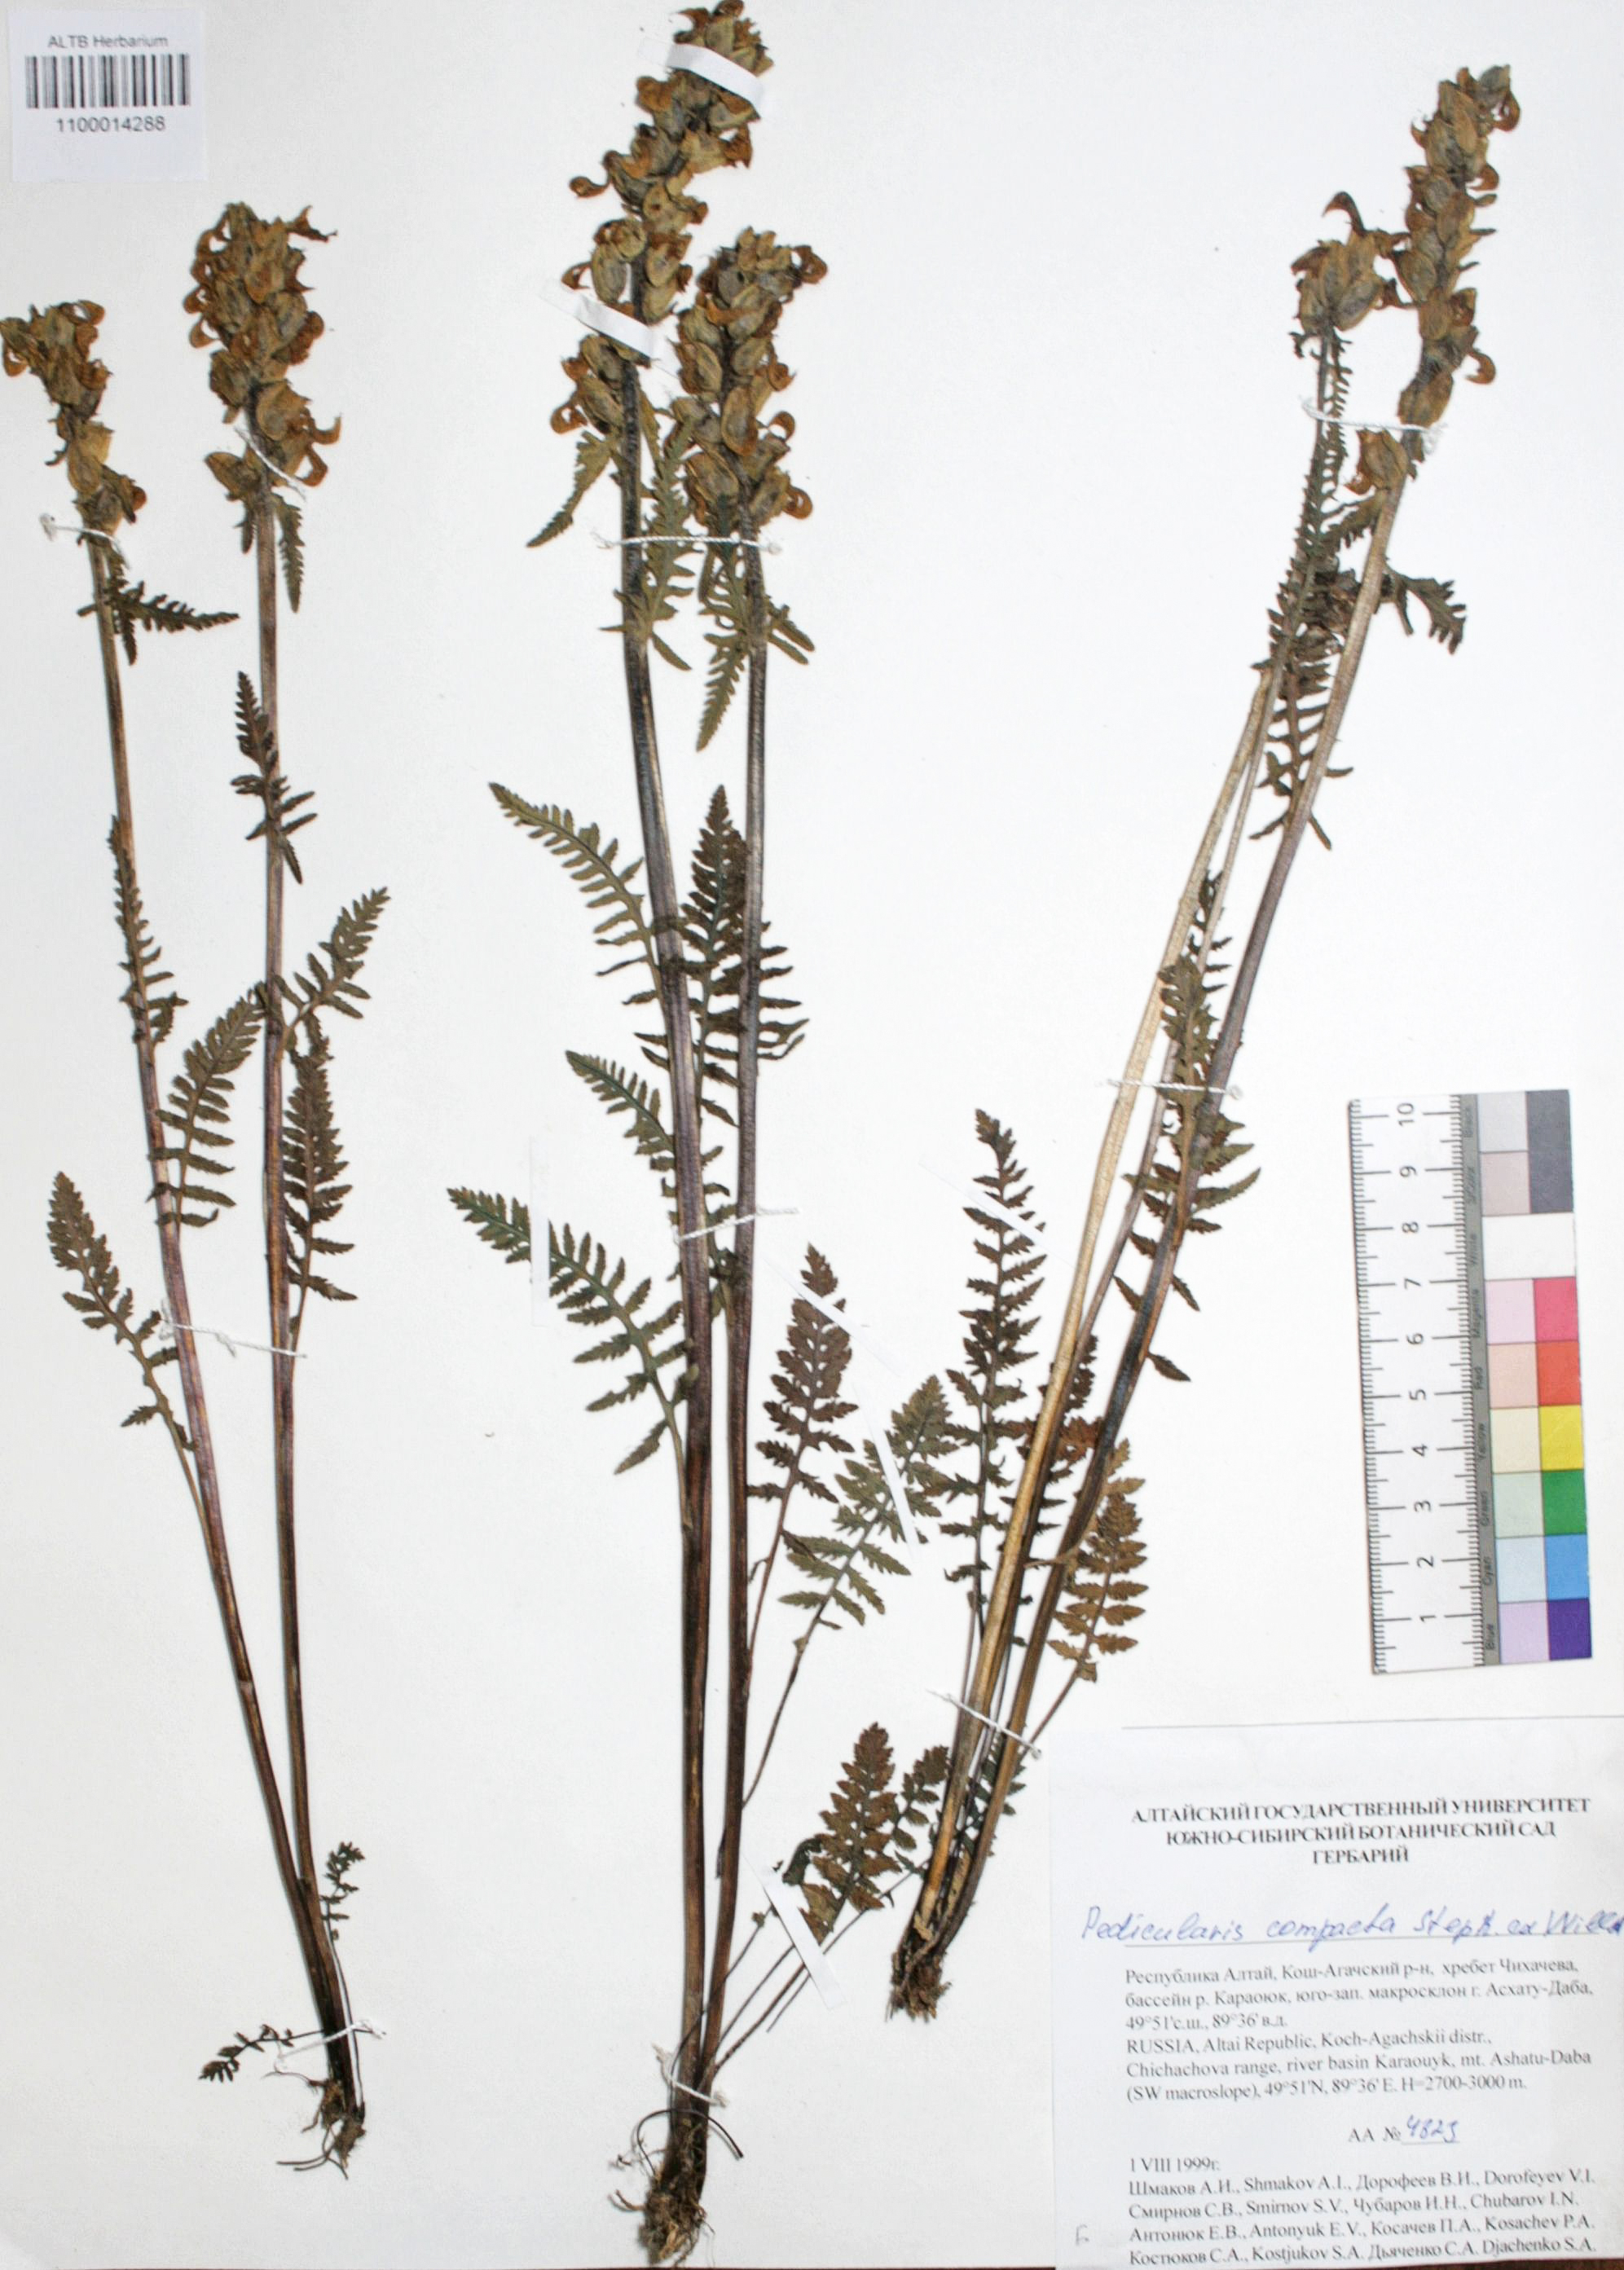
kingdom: Plantae
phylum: Tracheophyta
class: Magnoliopsida
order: Lamiales
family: Orobanchaceae
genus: Pedicularis
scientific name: Pedicularis compacta
